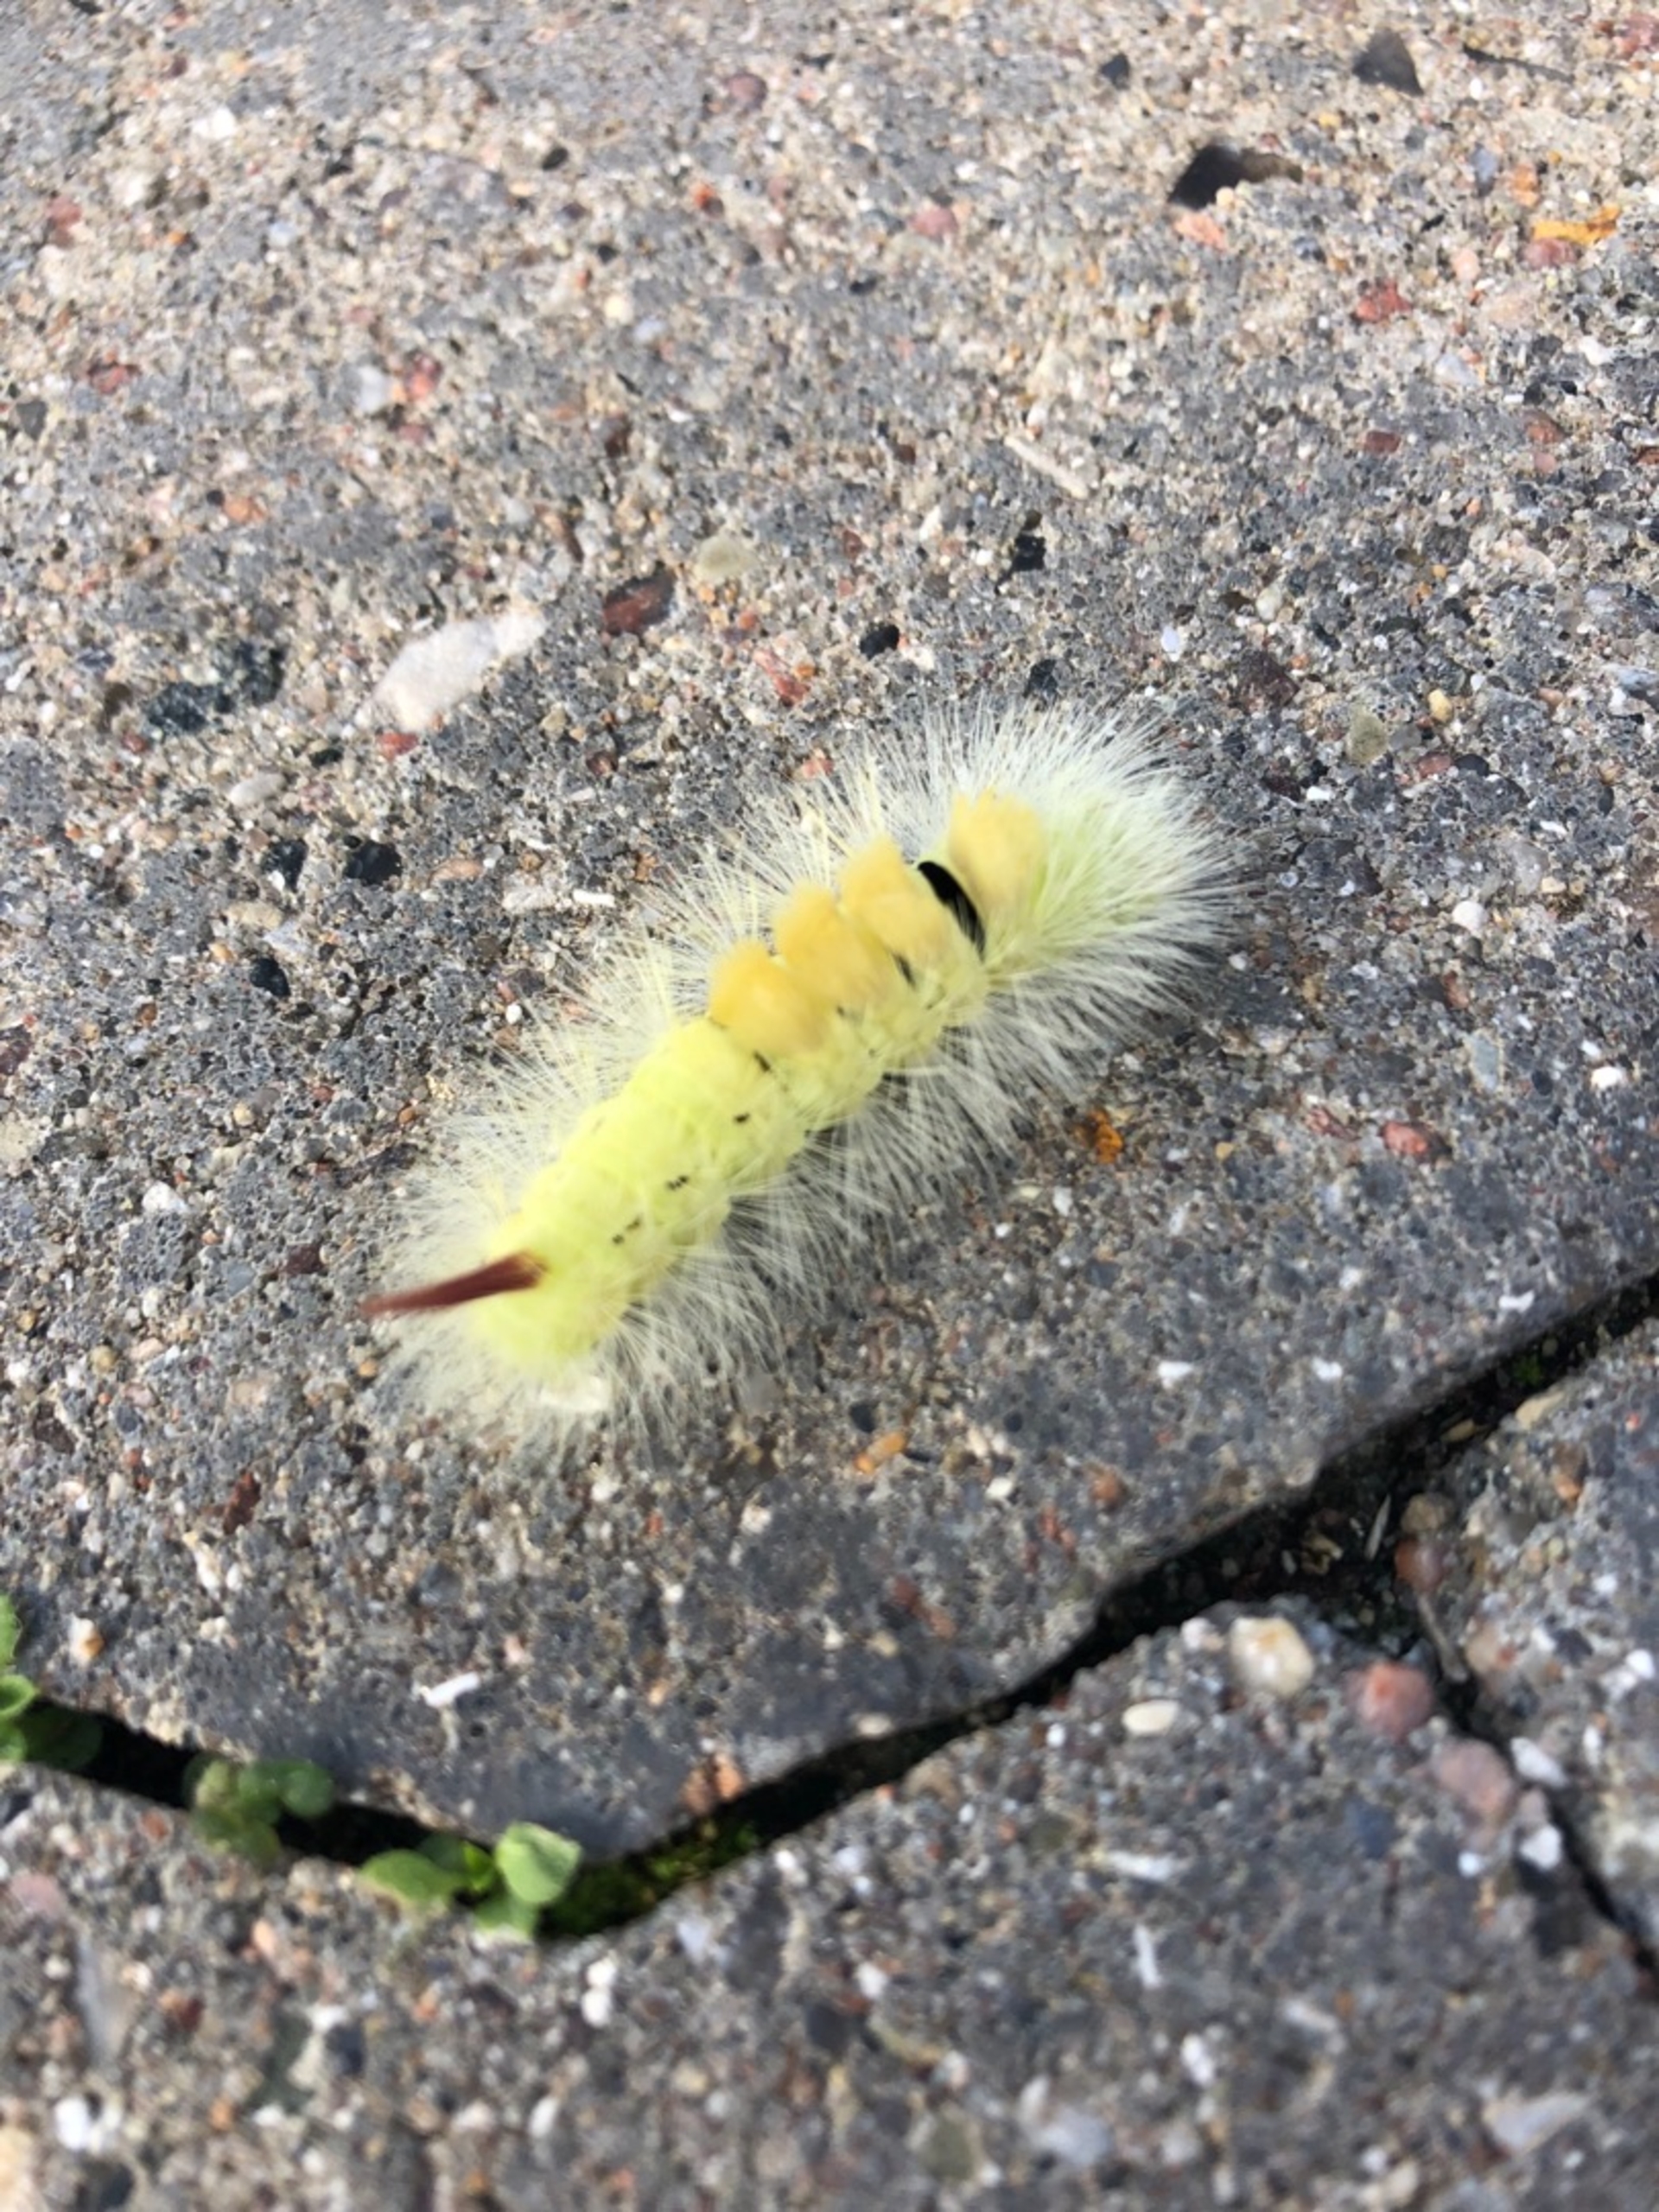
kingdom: Animalia
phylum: Arthropoda
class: Insecta
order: Lepidoptera
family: Erebidae
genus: Calliteara
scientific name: Calliteara pudibunda
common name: Bøgenonne
